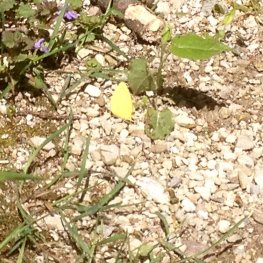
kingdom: Animalia
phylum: Arthropoda
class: Insecta
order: Lepidoptera
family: Pieridae
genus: Abaeis
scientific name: Abaeis nicippe
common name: Sleepy Orange
